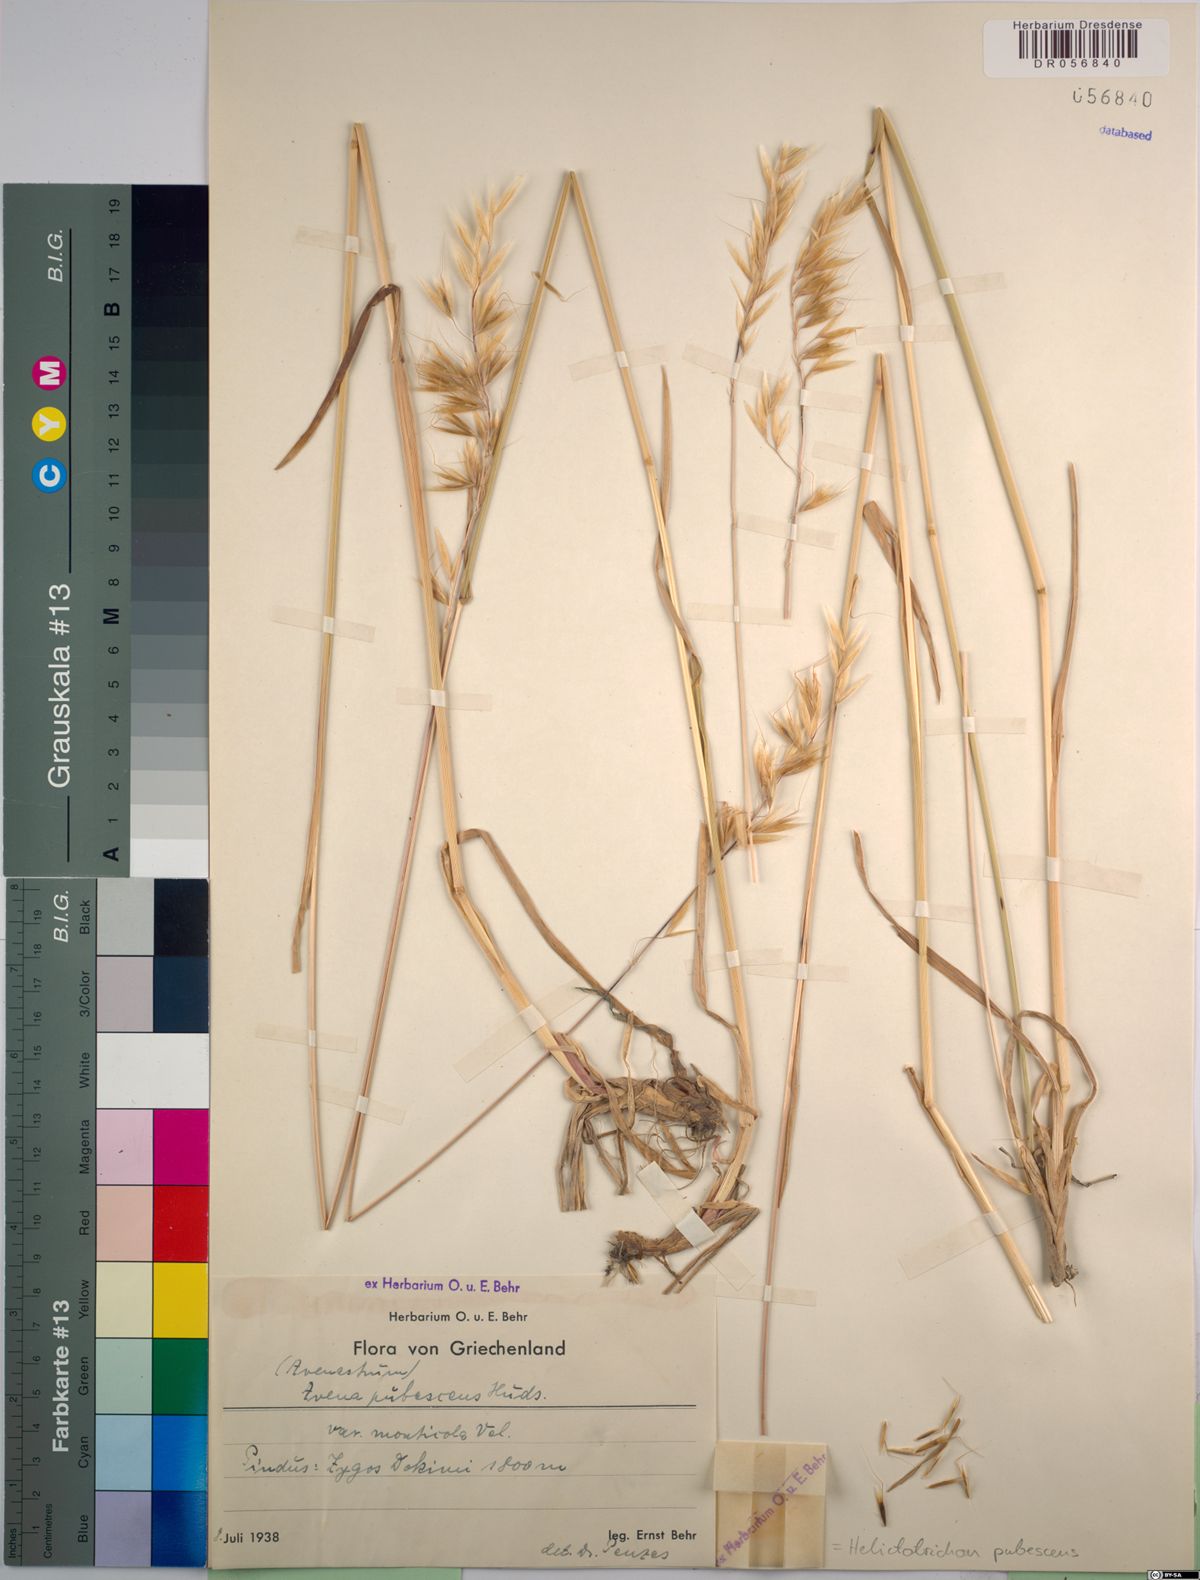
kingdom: Plantae
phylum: Tracheophyta
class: Liliopsida
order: Poales
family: Poaceae
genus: Avenula
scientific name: Avenula pubescens
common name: Downy alpine oatgrass
